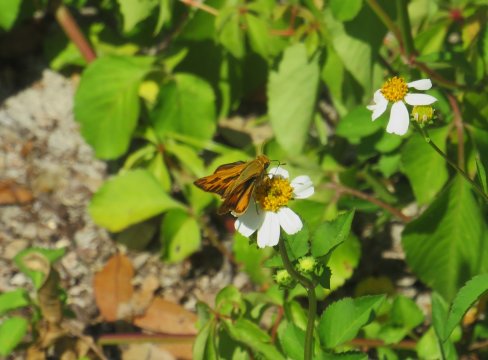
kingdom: Animalia
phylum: Arthropoda
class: Insecta
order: Lepidoptera
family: Hesperiidae
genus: Polites
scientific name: Polites vibex
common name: Whirlabout
